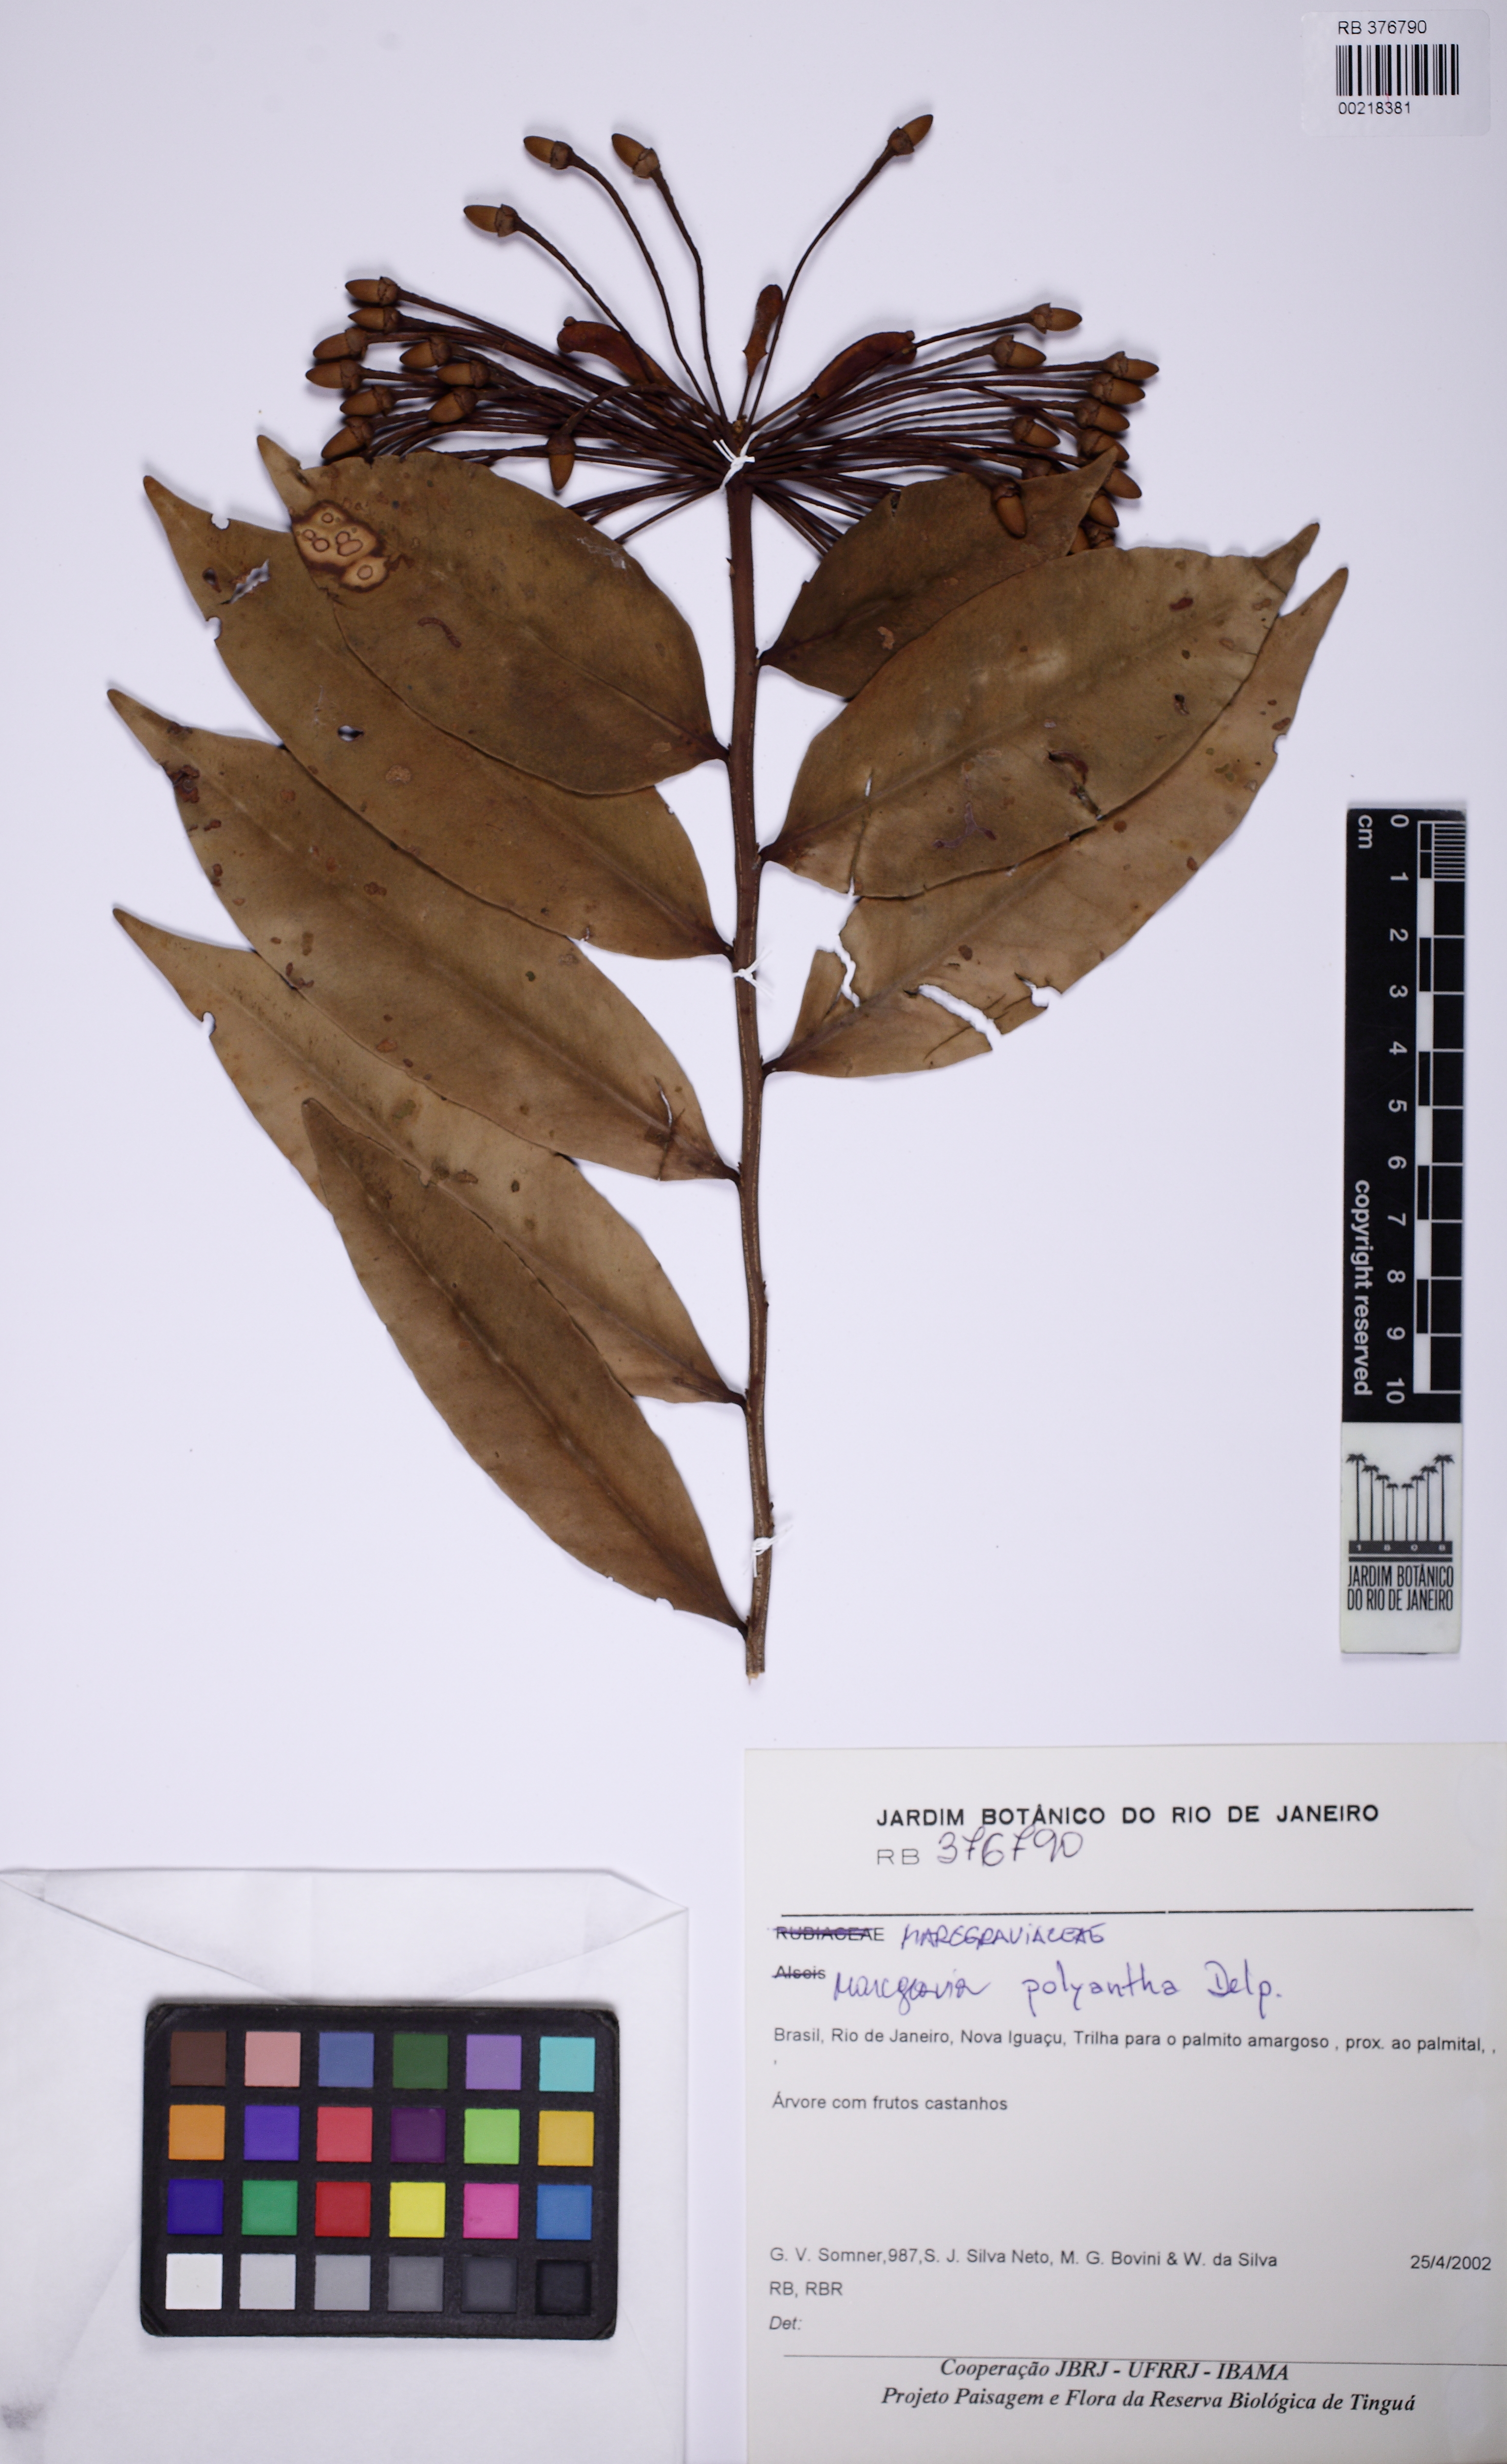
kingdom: Plantae
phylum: Tracheophyta
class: Magnoliopsida
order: Ericales
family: Marcgraviaceae
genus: Marcgravia
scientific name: Marcgravia polyantha
